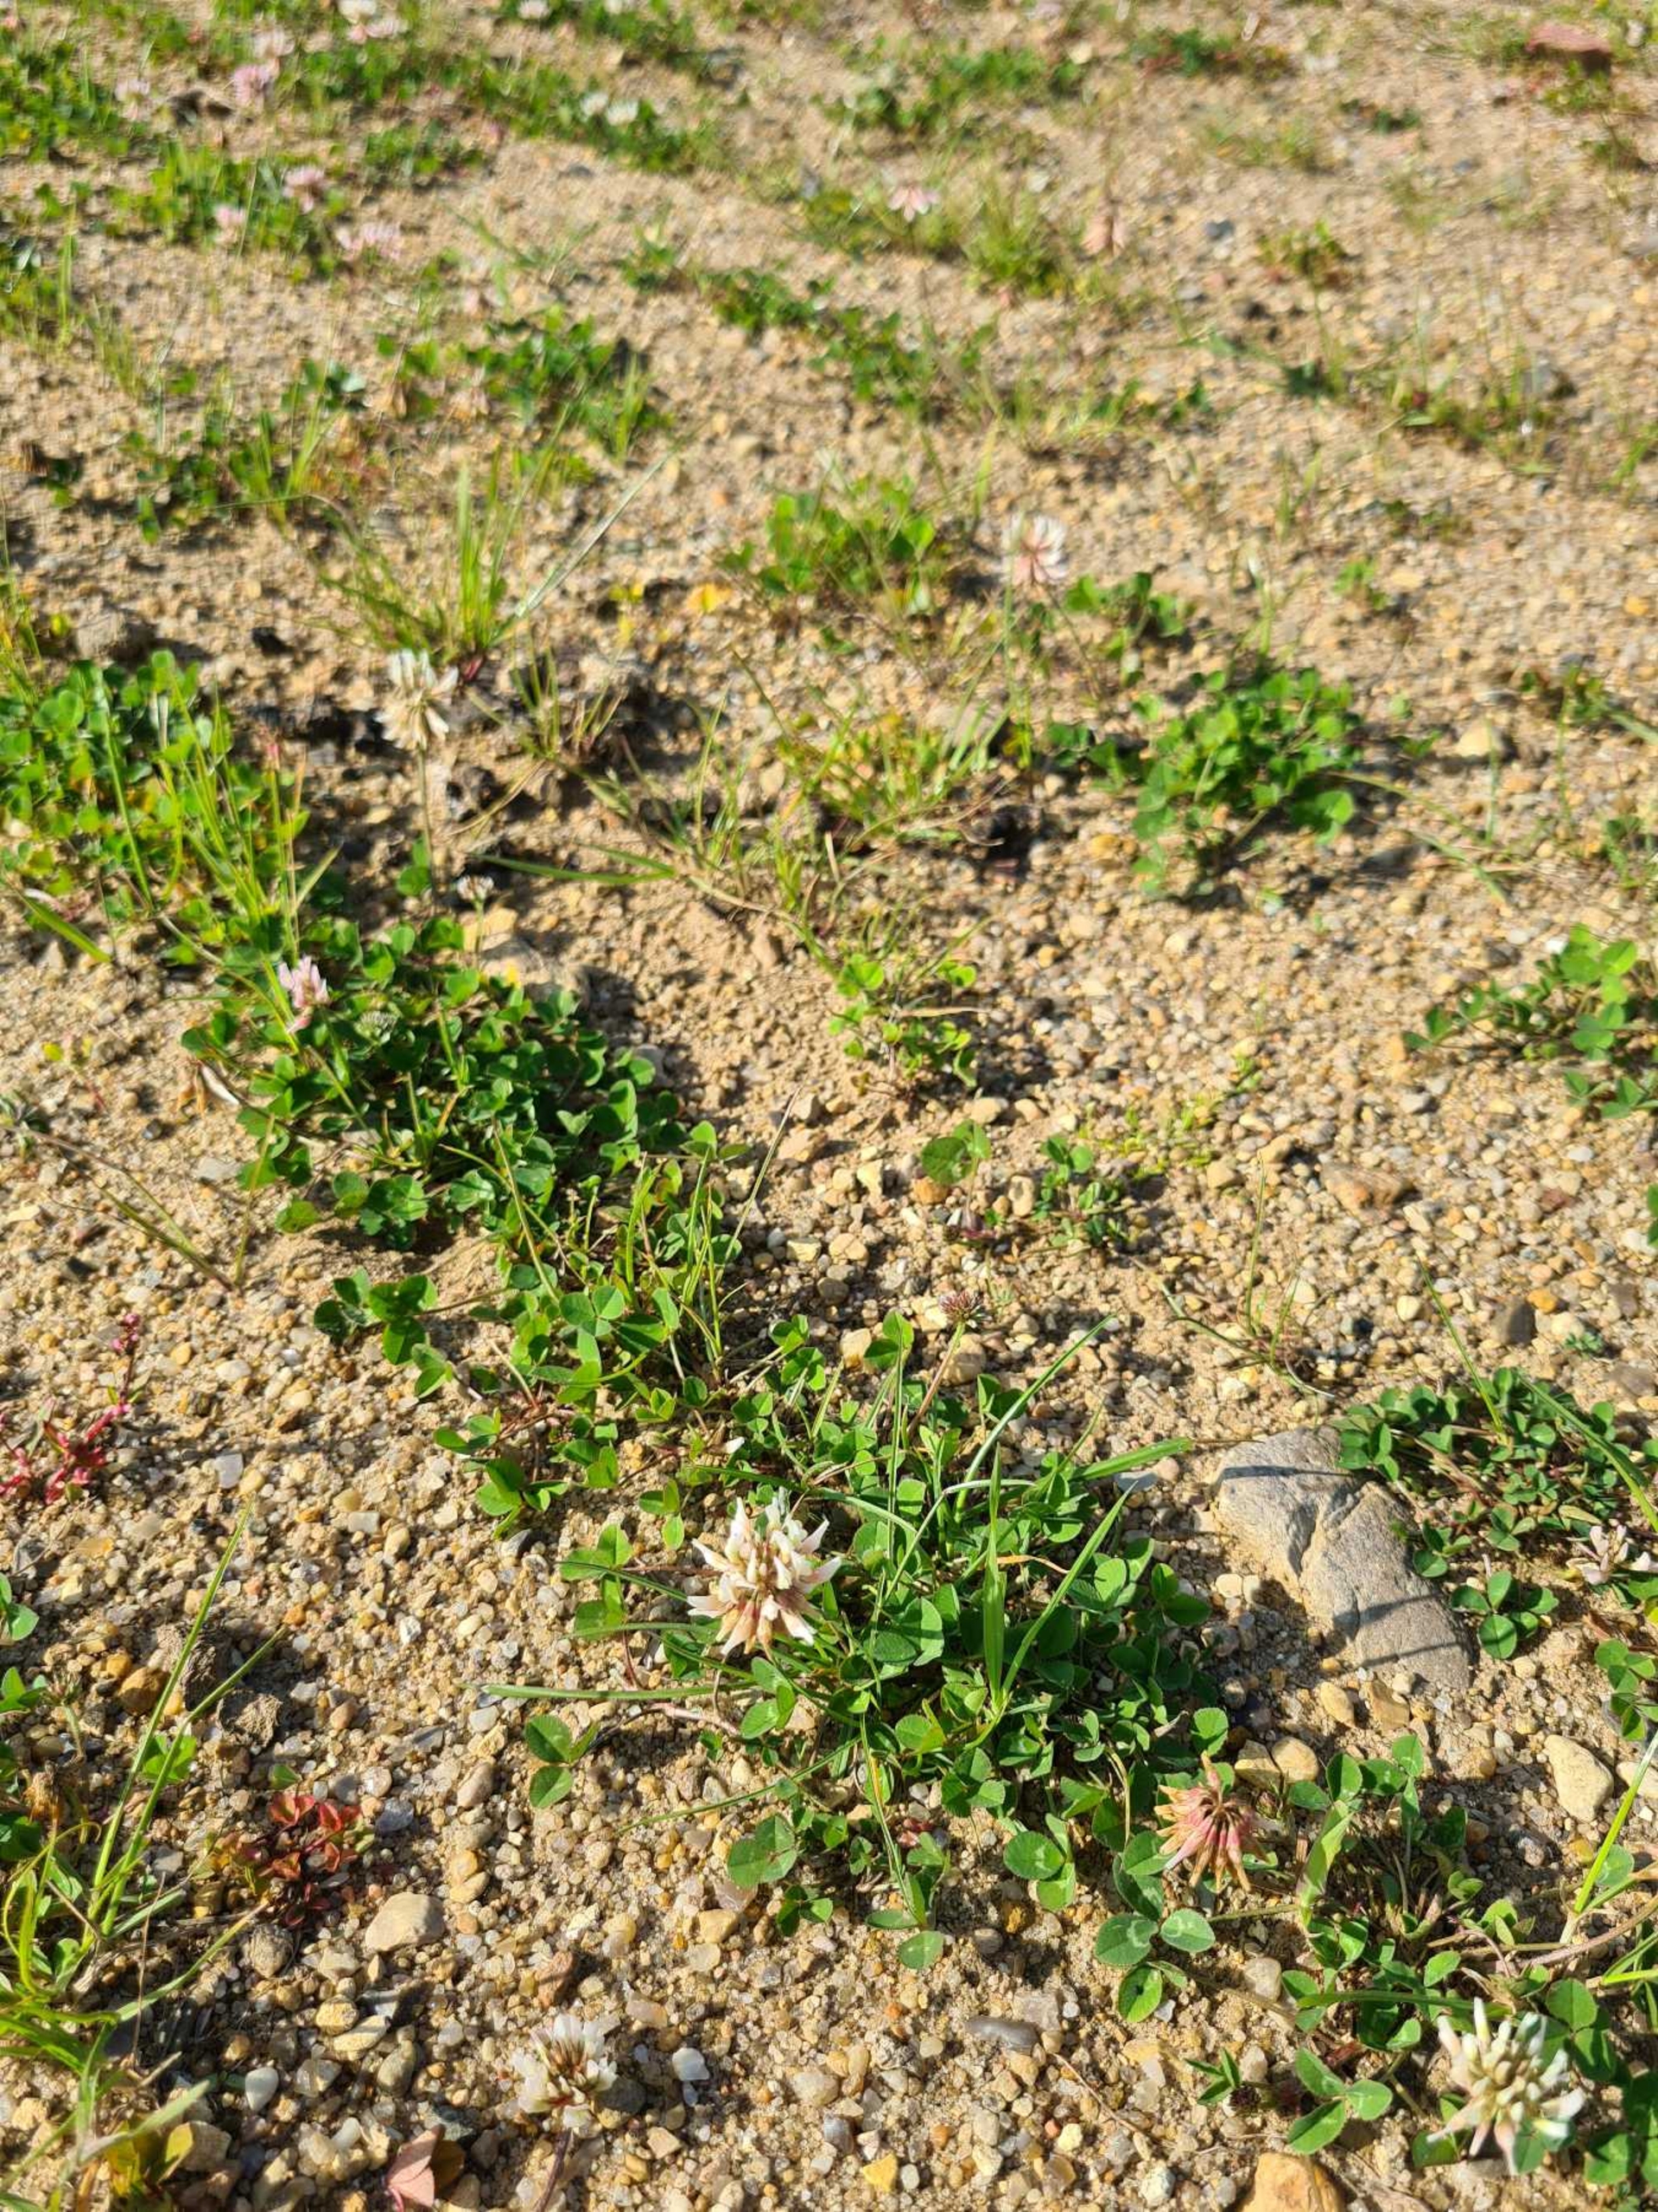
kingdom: Plantae
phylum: Tracheophyta
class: Magnoliopsida
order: Fabales
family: Fabaceae
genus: Trifolium
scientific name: Trifolium repens
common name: Hvid-kløver
